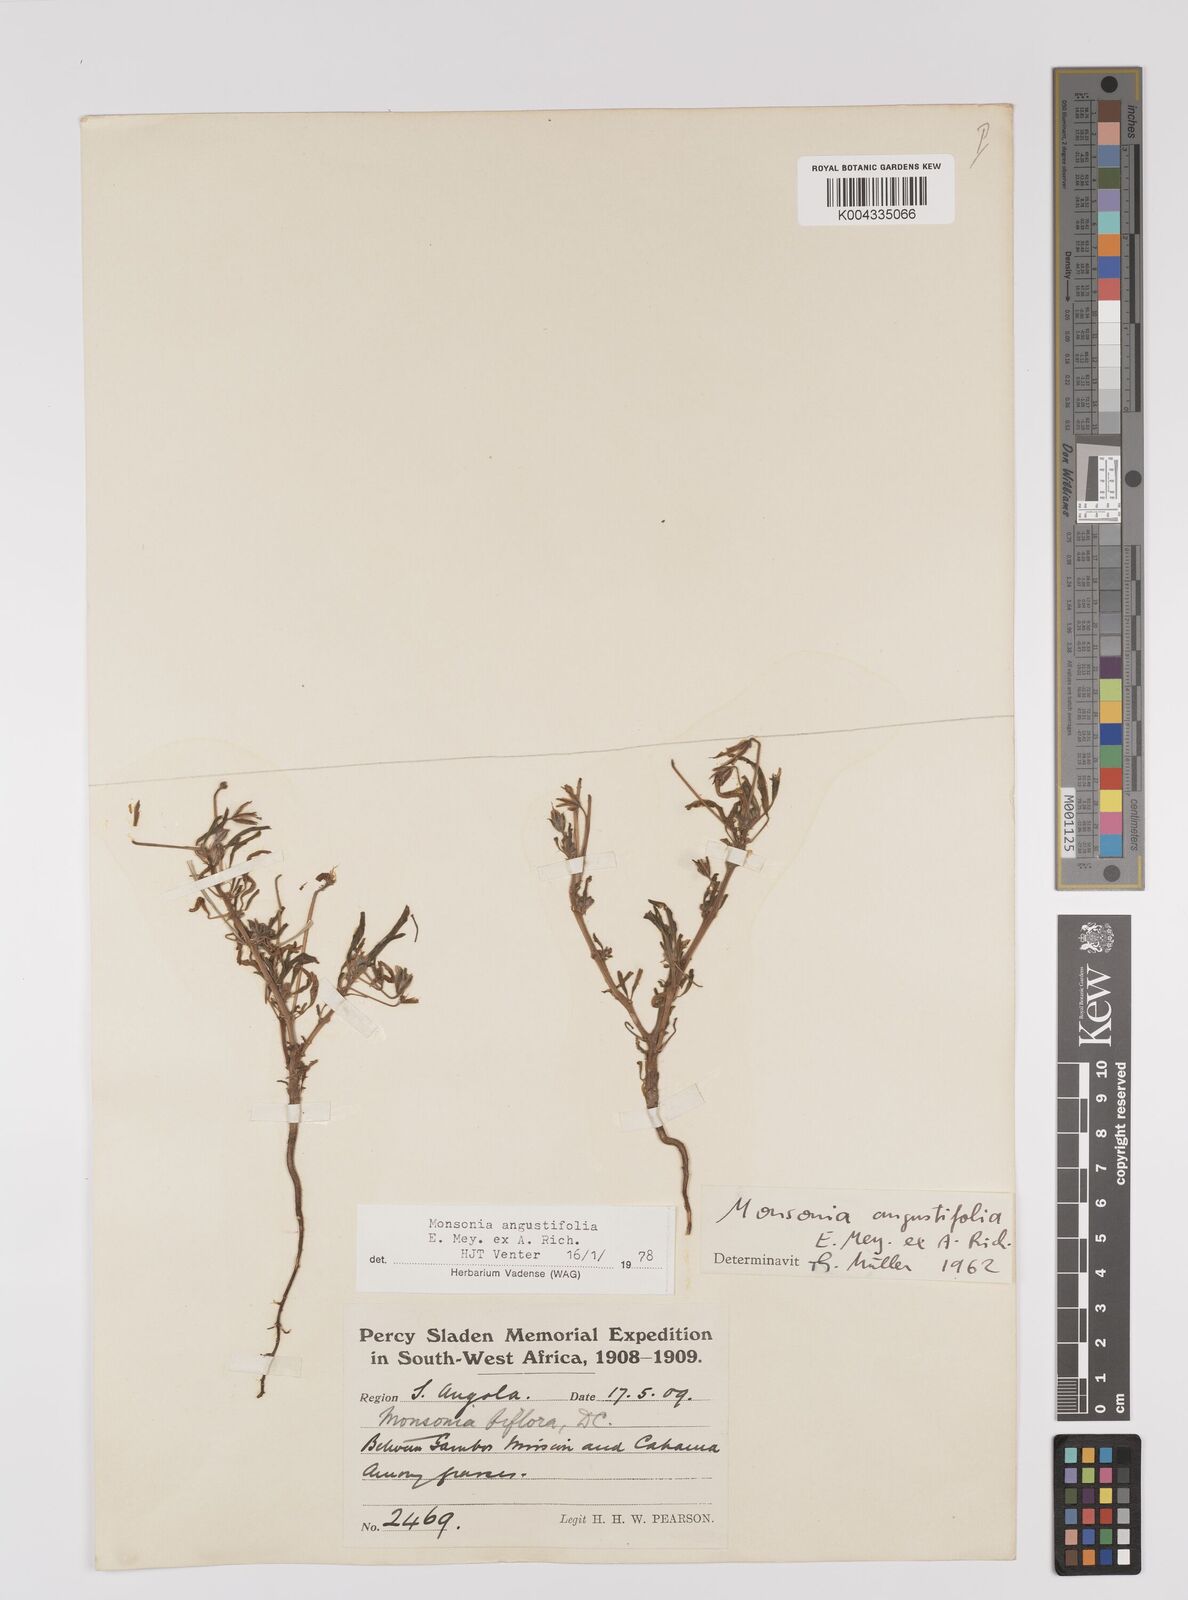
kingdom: Plantae
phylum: Tracheophyta
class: Magnoliopsida
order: Geraniales
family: Geraniaceae
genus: Monsonia
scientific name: Monsonia angustifolia
